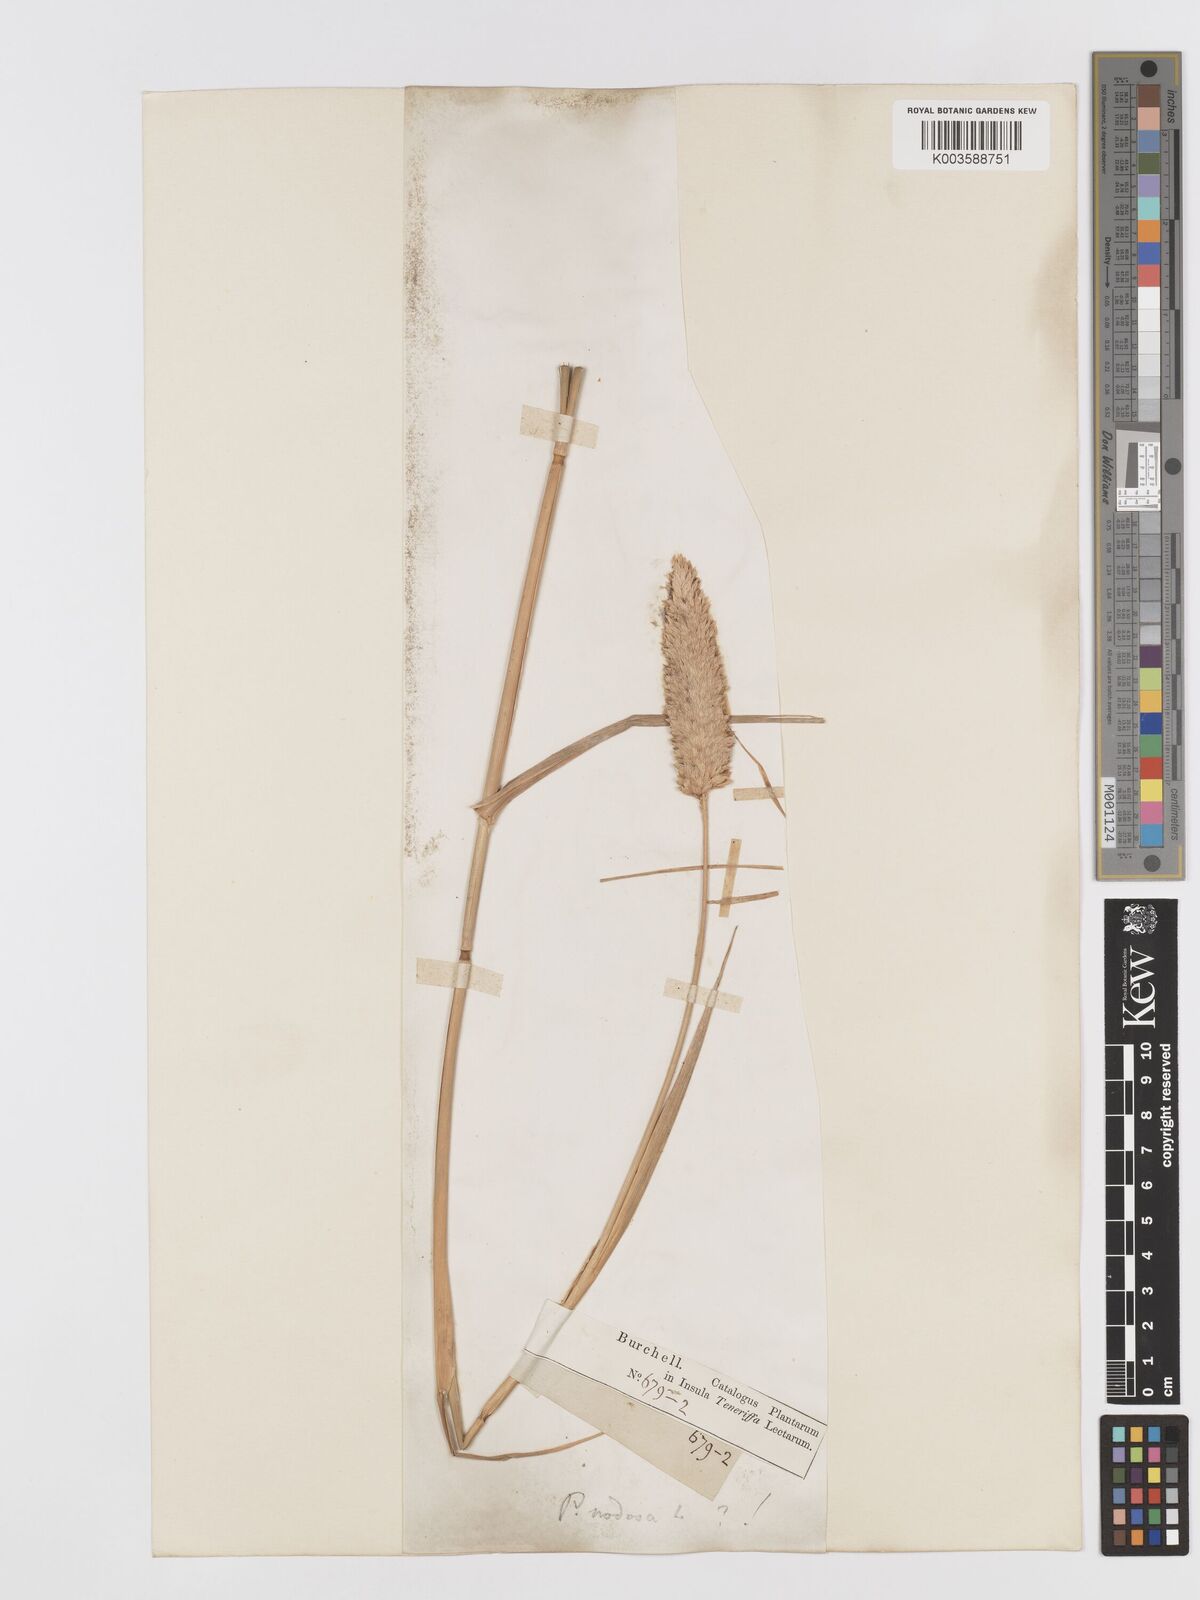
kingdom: Plantae
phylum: Tracheophyta
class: Liliopsida
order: Poales
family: Poaceae
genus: Phalaris
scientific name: Phalaris aquatica
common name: Bulbous canary-grass
